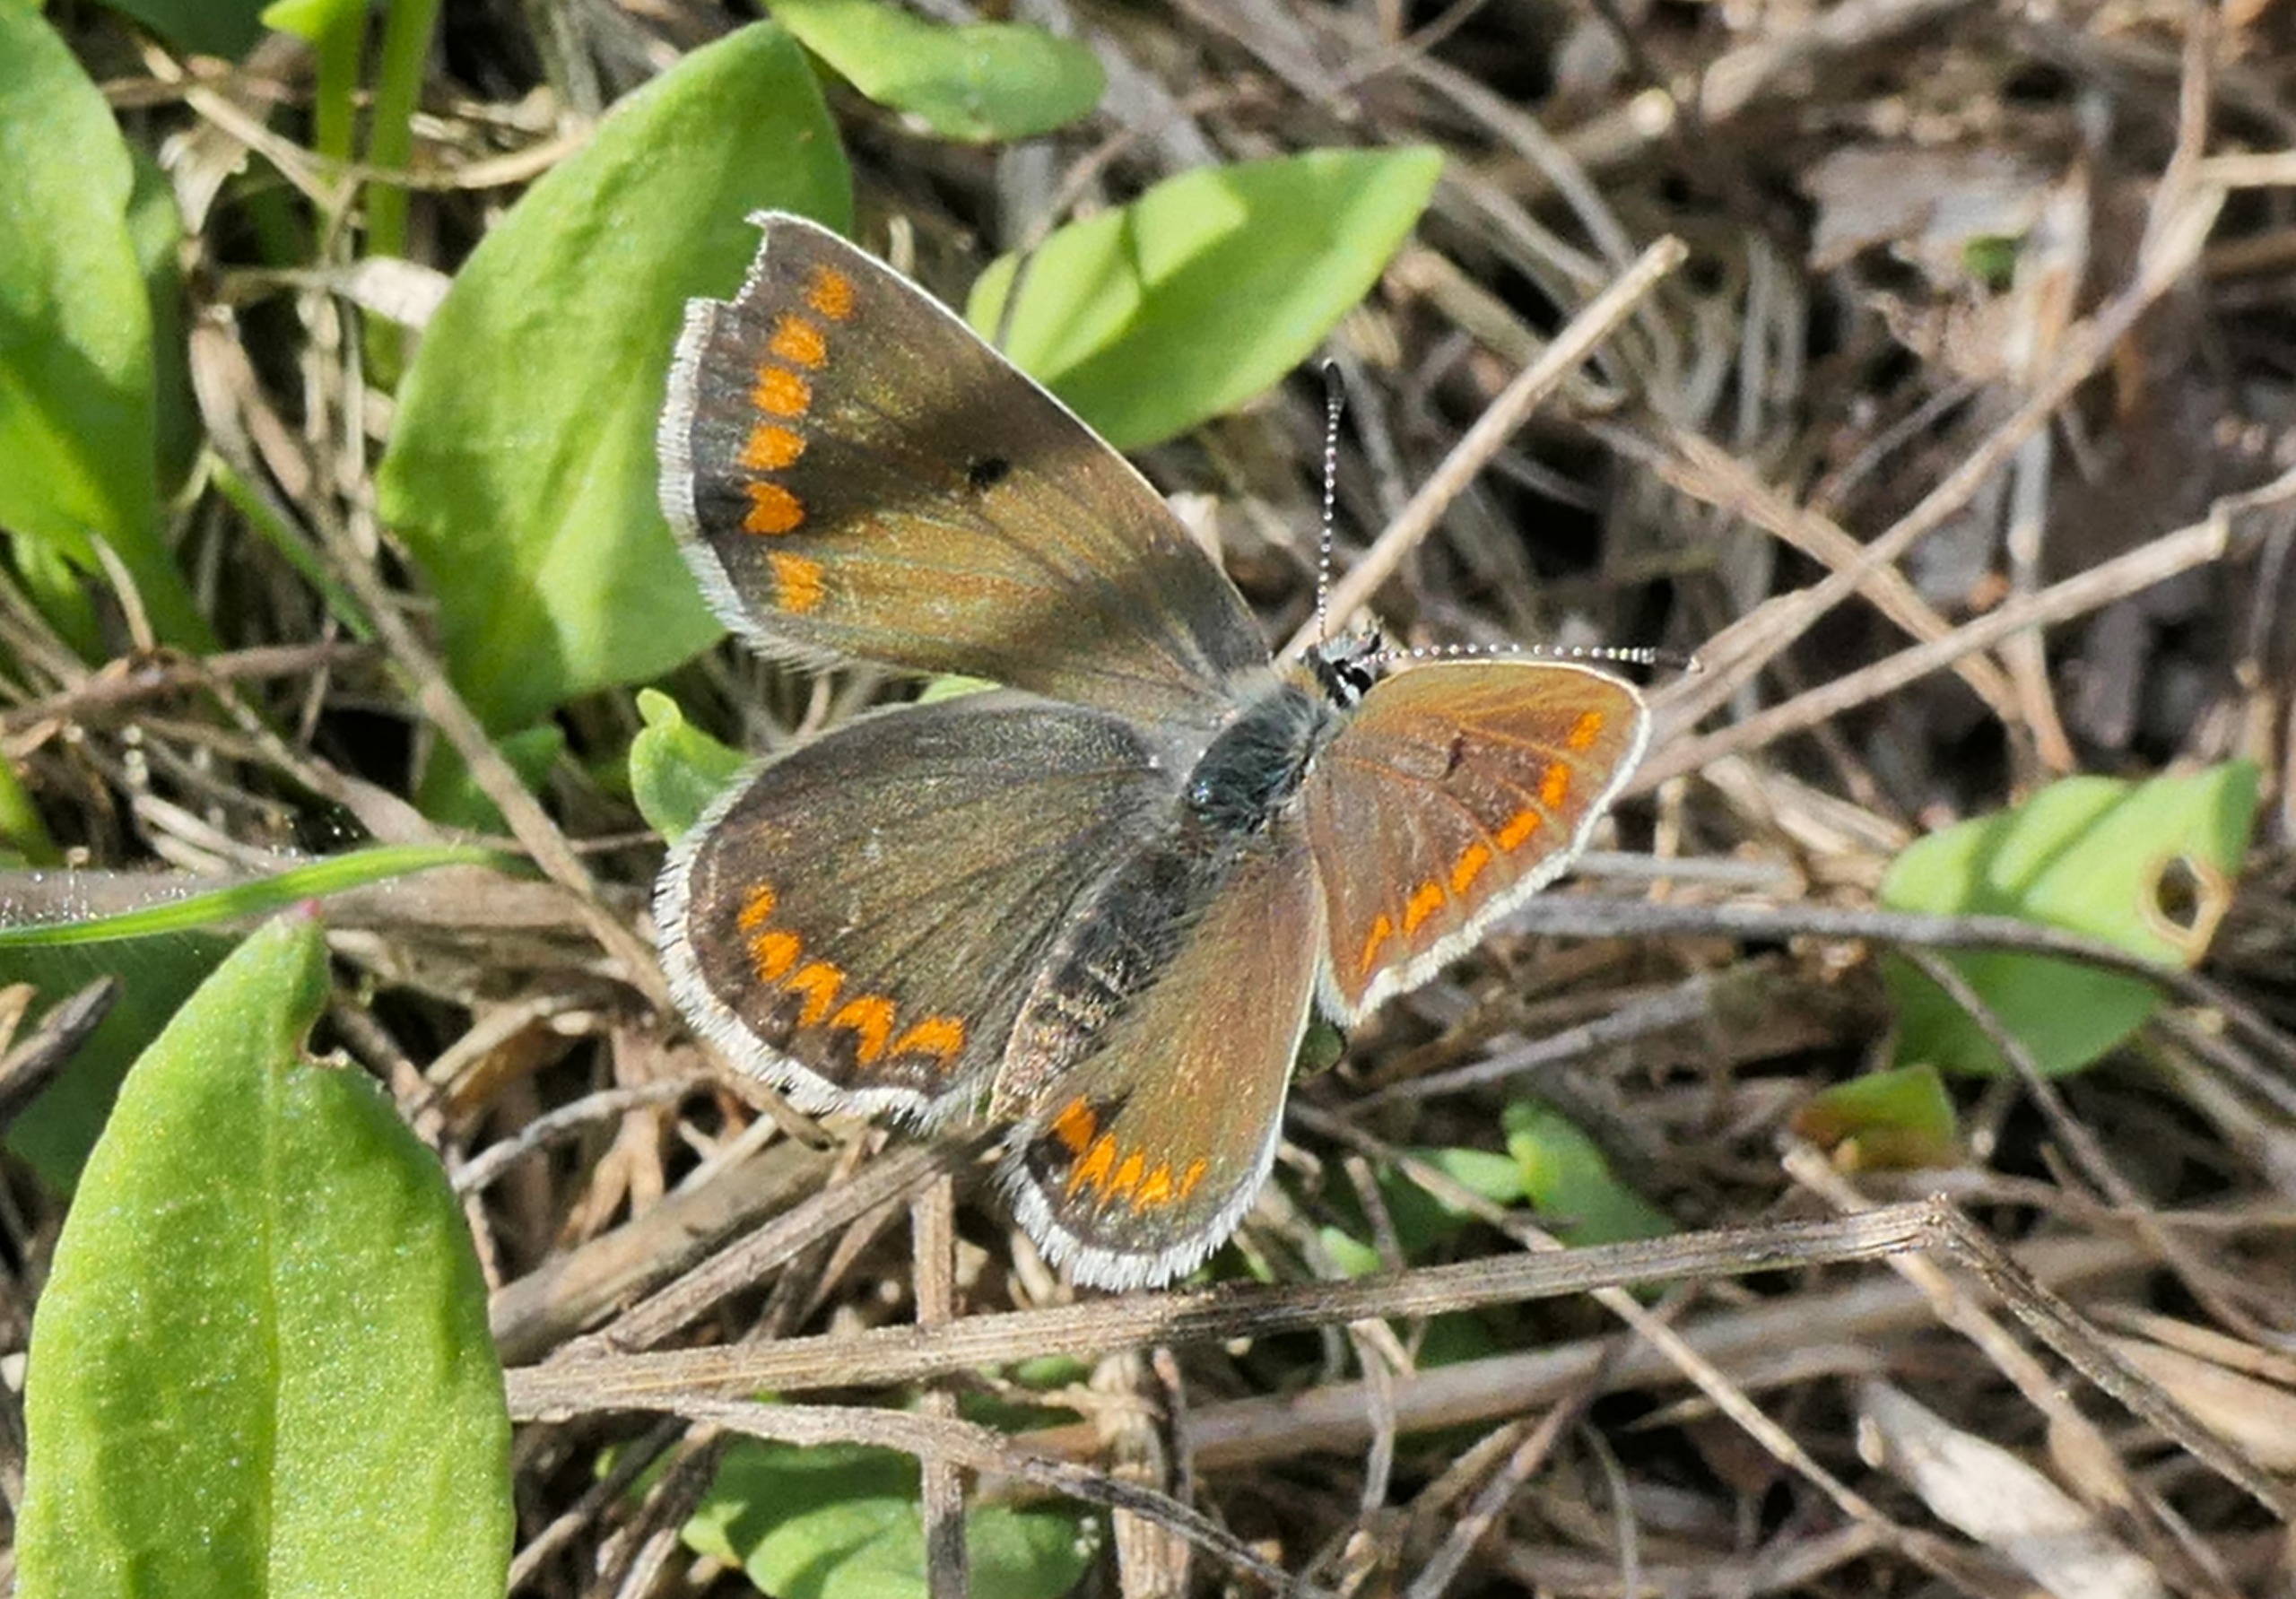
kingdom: Animalia
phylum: Arthropoda
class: Insecta
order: Lepidoptera
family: Lycaenidae
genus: Aricia
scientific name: Aricia agestis
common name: Rødplettet blåfugl
